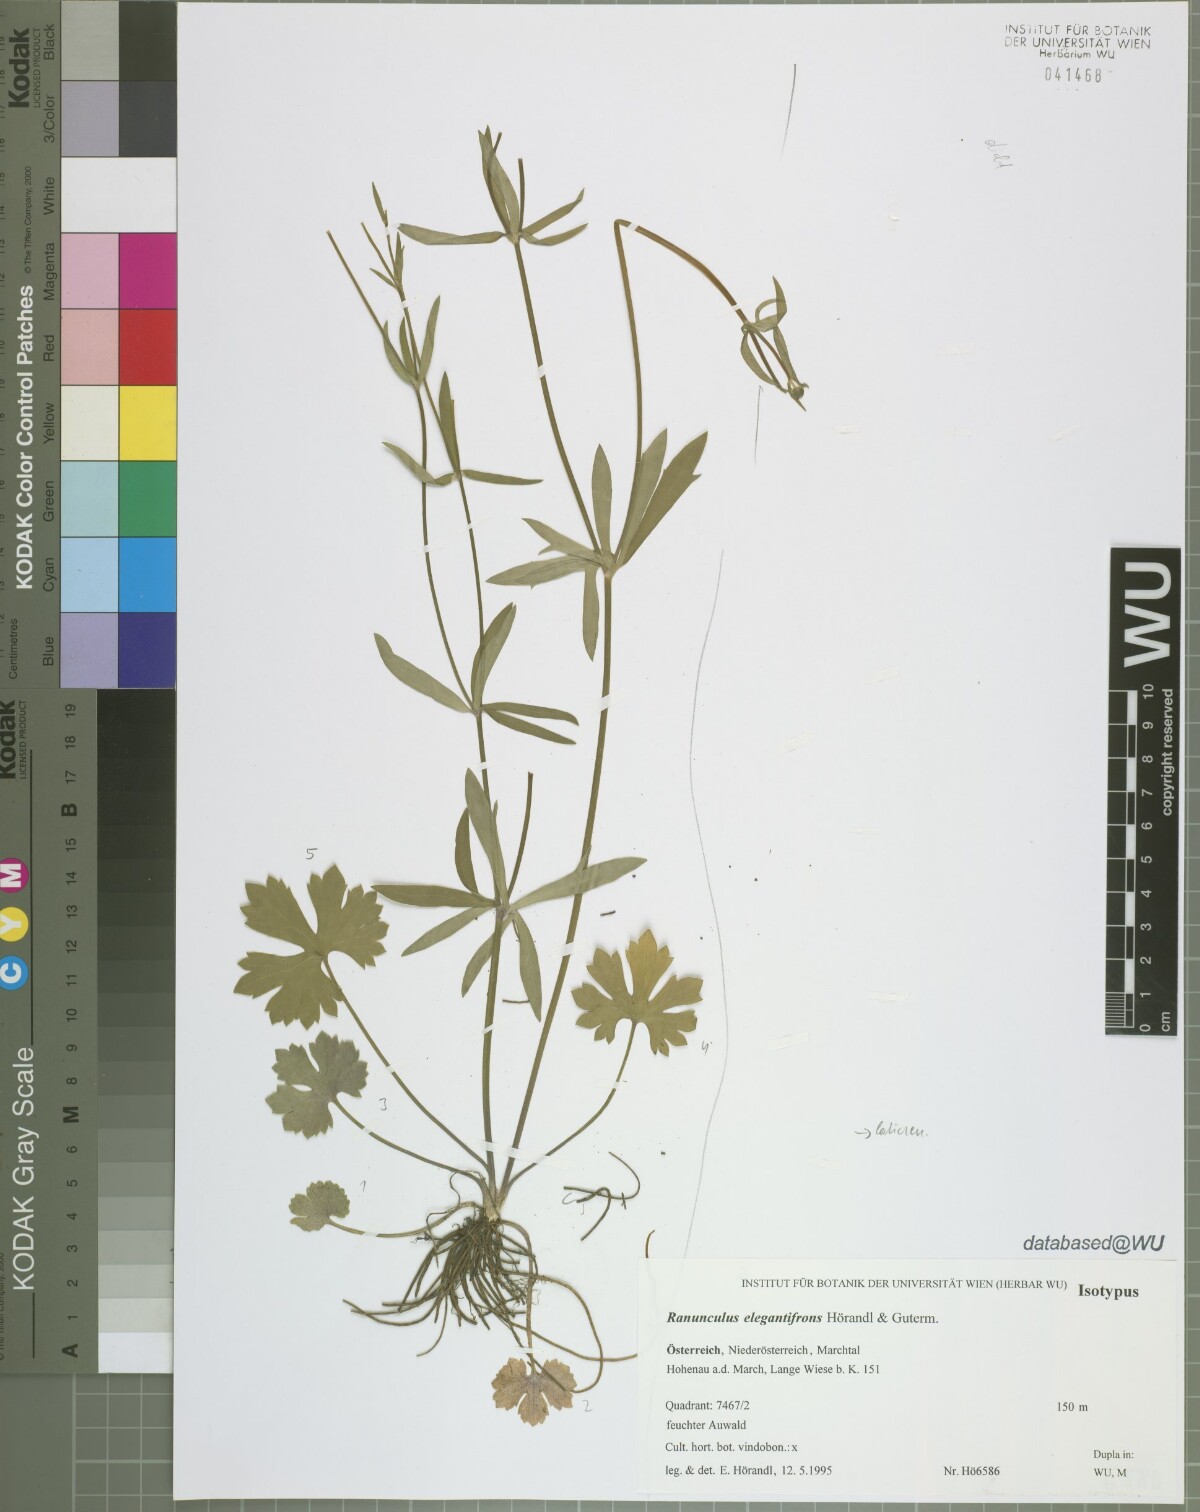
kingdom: Plantae
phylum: Tracheophyta
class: Magnoliopsida
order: Ranunculales
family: Ranunculaceae
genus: Ranunculus
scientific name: Ranunculus elegantifrons
